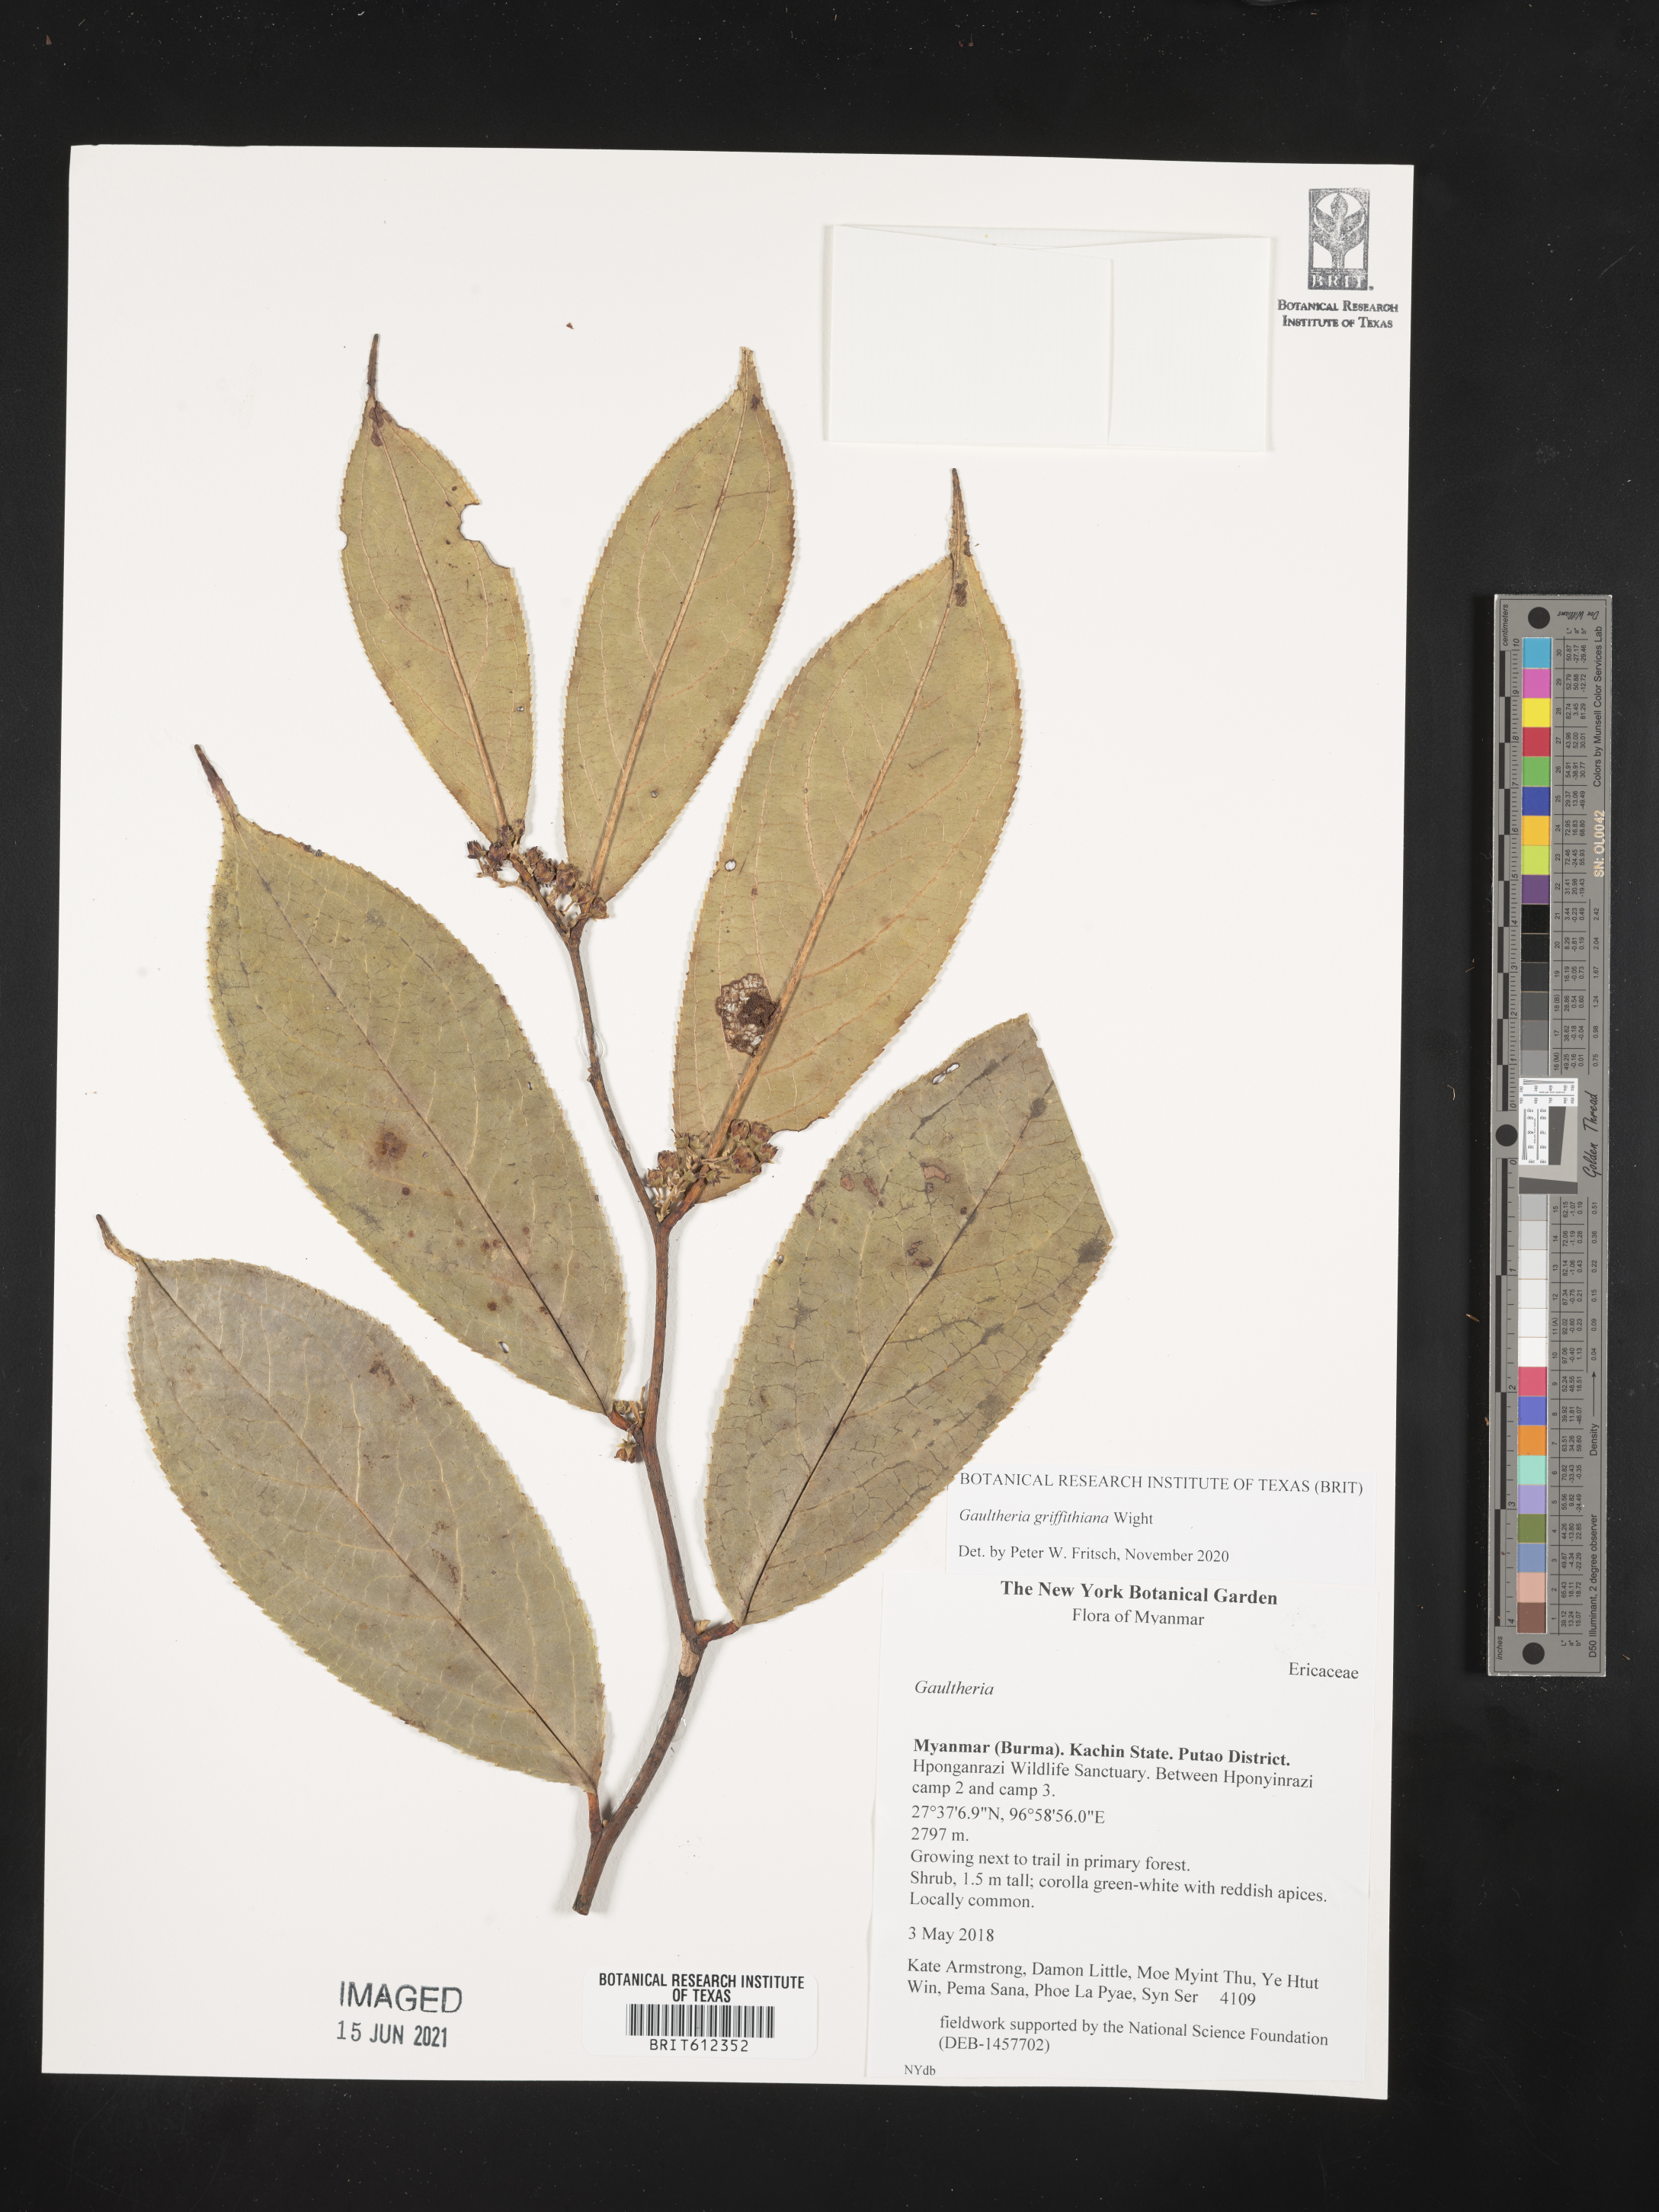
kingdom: Plantae
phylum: Tracheophyta
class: Magnoliopsida
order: Ericales
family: Ericaceae
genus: Gaultheria
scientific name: Gaultheria griffithiana
